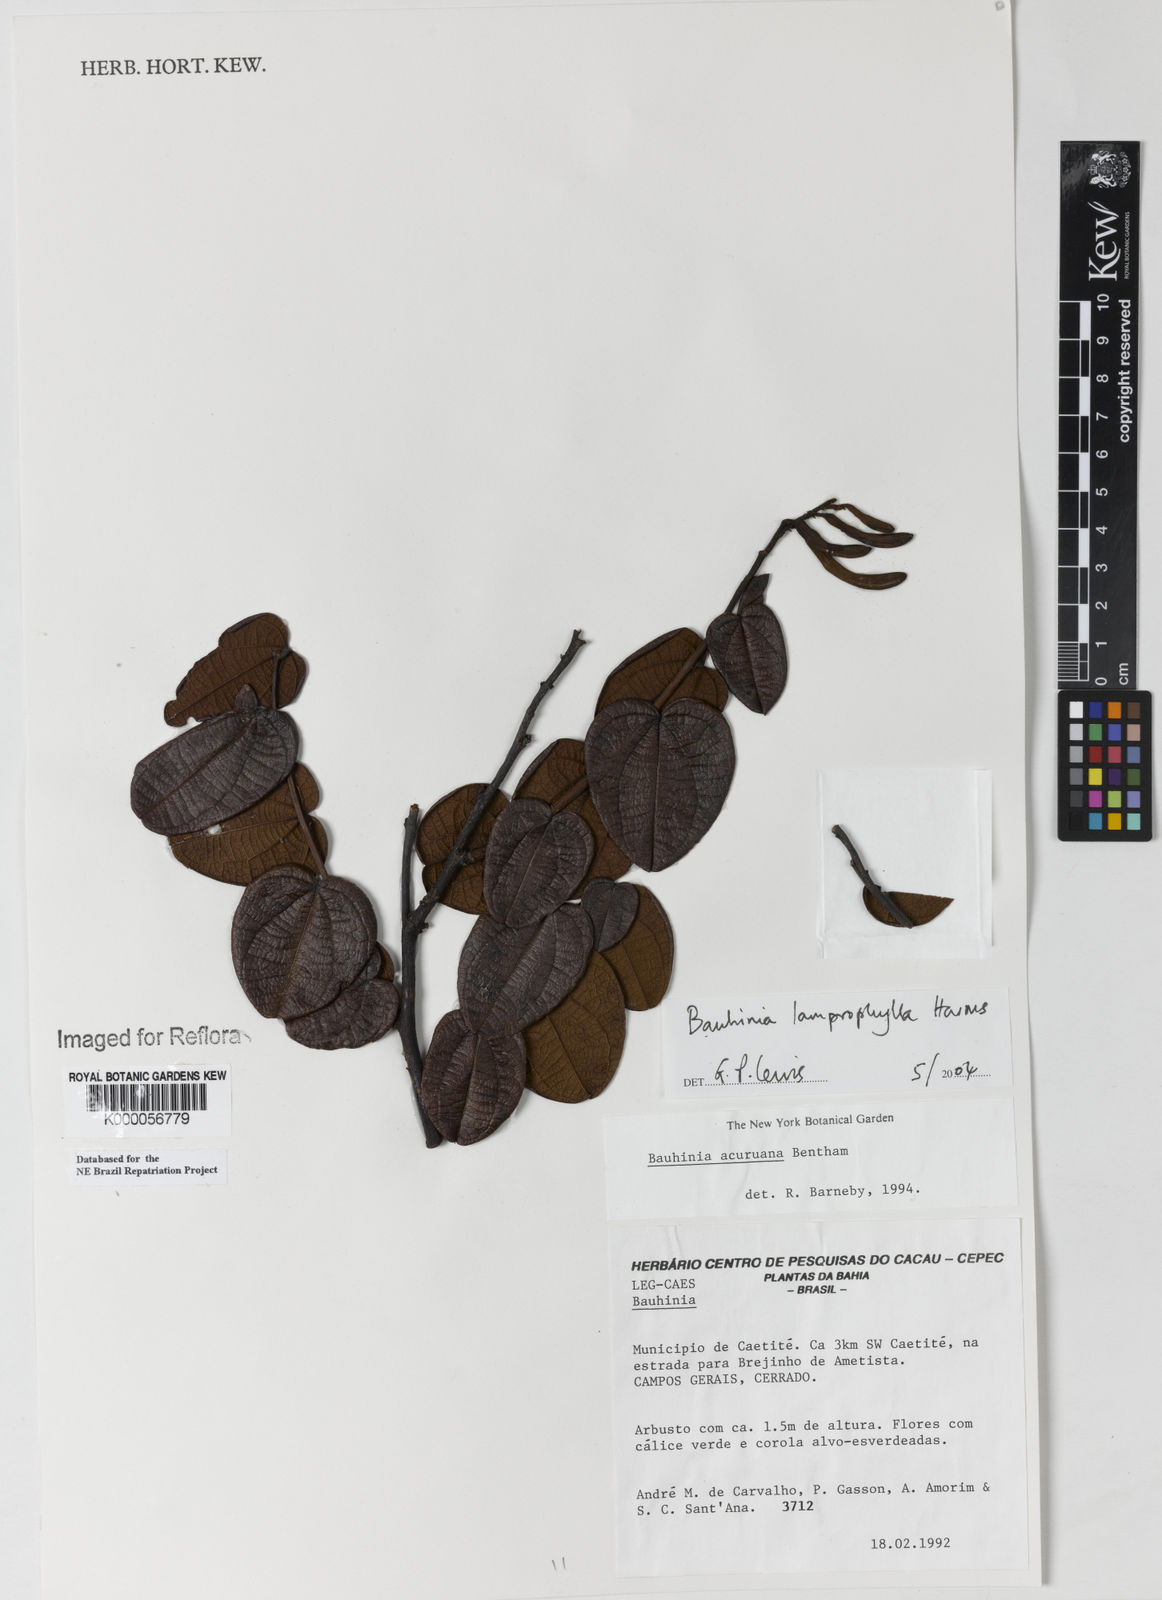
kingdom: Plantae
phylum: Tracheophyta
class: Magnoliopsida
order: Fabales
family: Fabaceae
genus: Bauhinia
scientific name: Bauhinia
